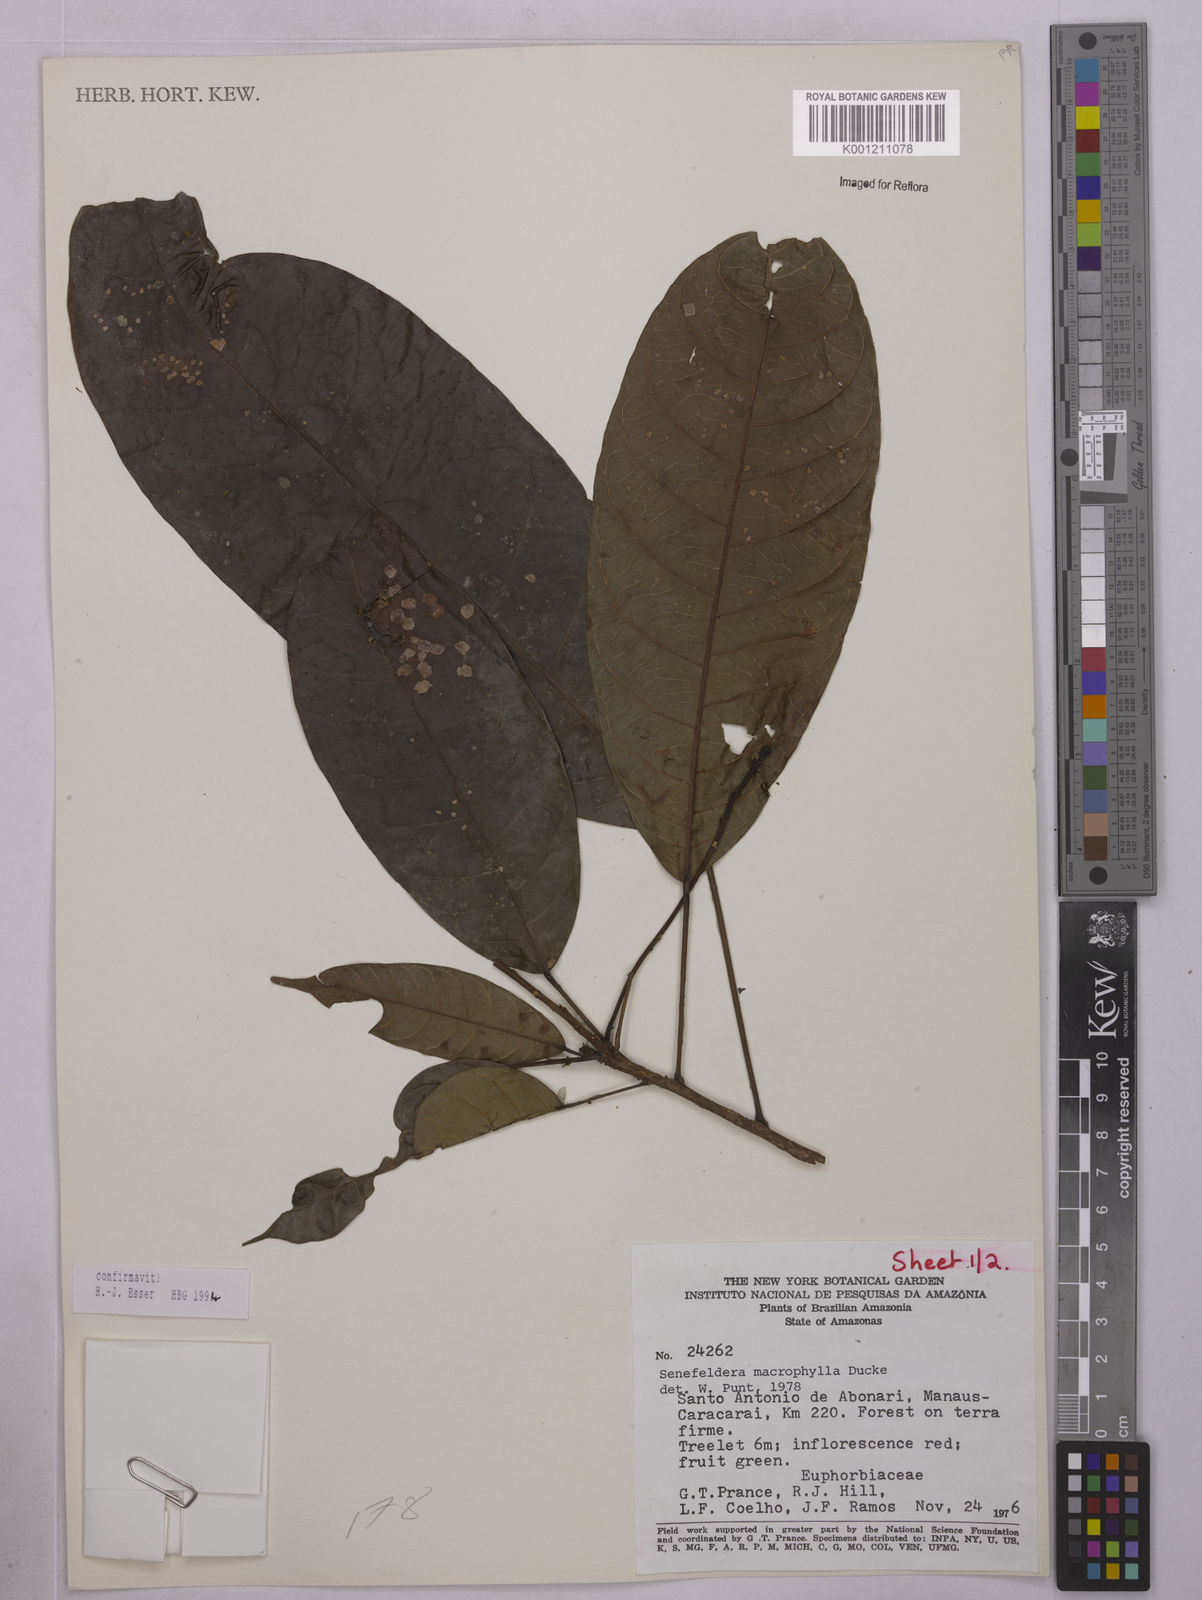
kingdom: Plantae
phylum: Tracheophyta
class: Magnoliopsida
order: Malpighiales
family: Euphorbiaceae
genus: Rhodothyrsus
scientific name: Rhodothyrsus macrophyllus
